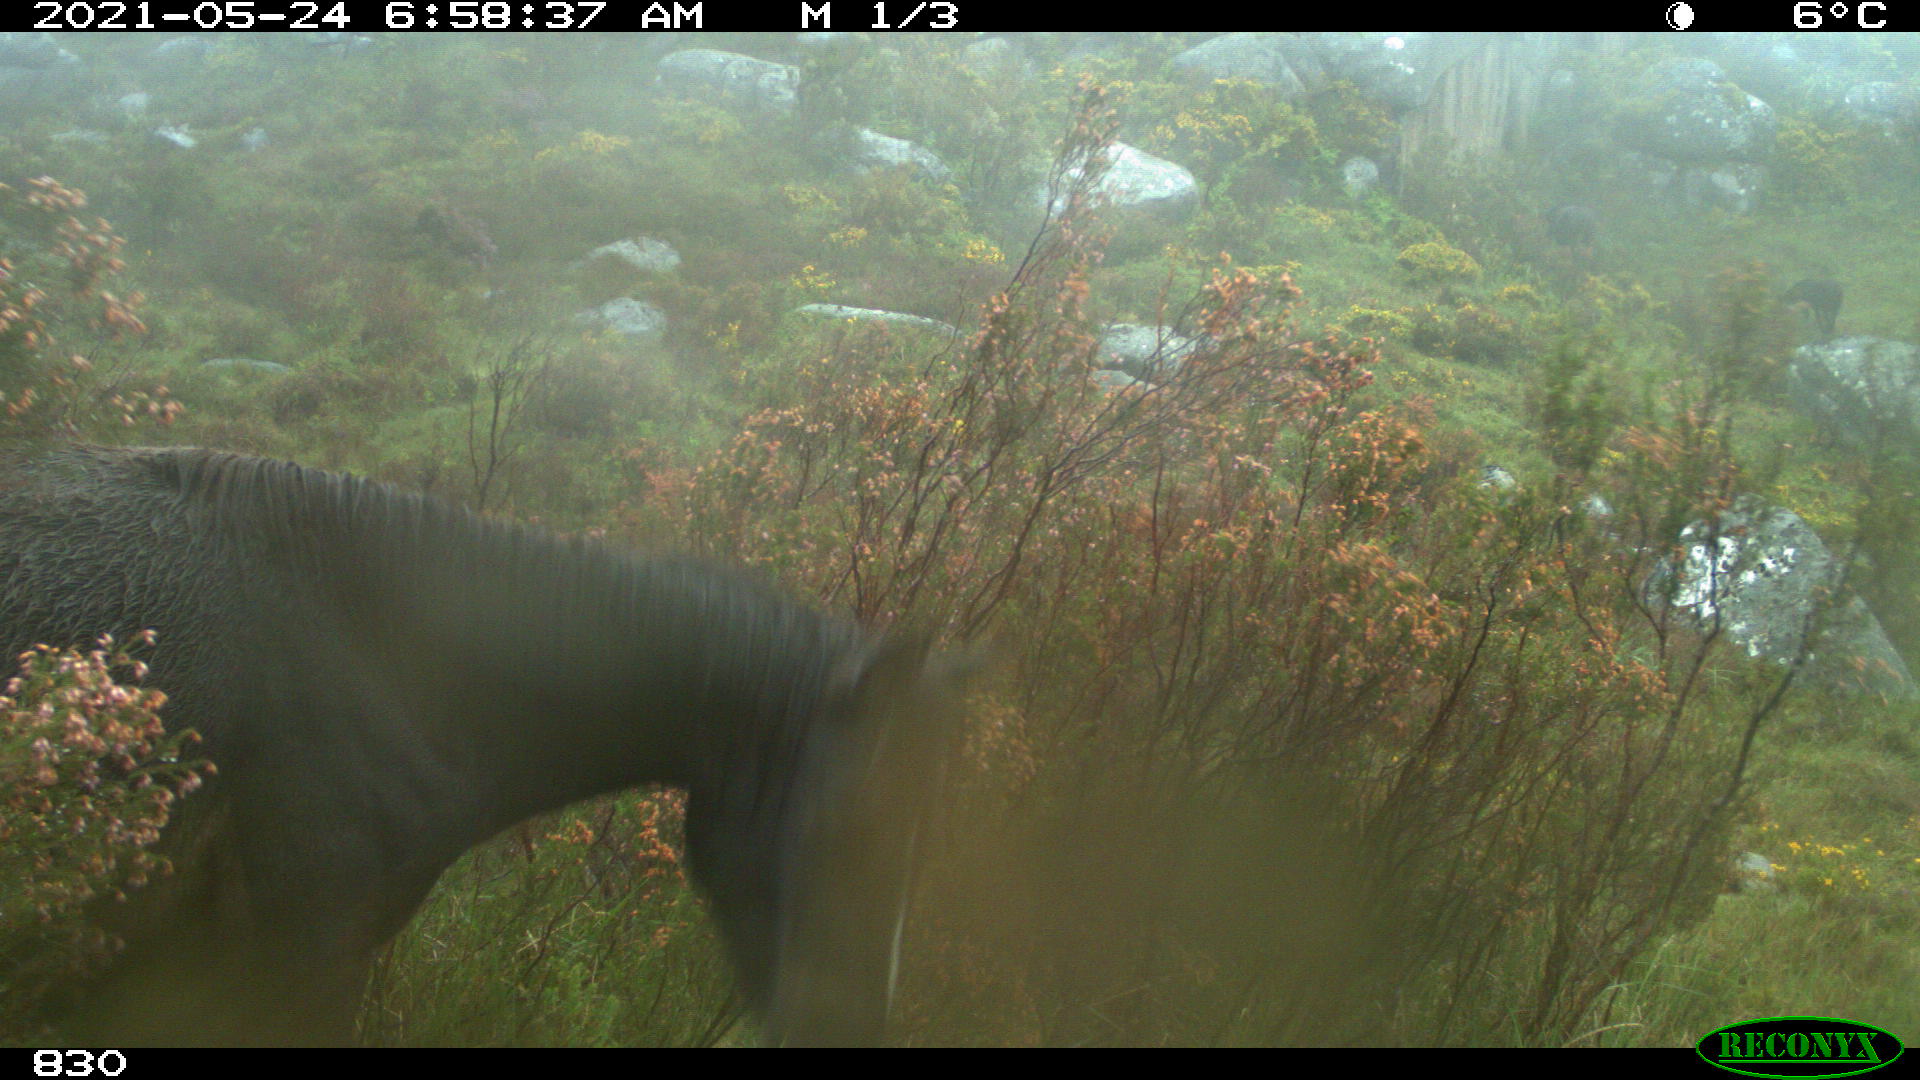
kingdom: Animalia
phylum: Chordata
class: Mammalia
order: Perissodactyla
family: Equidae
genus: Equus
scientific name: Equus caballus
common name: Horse
